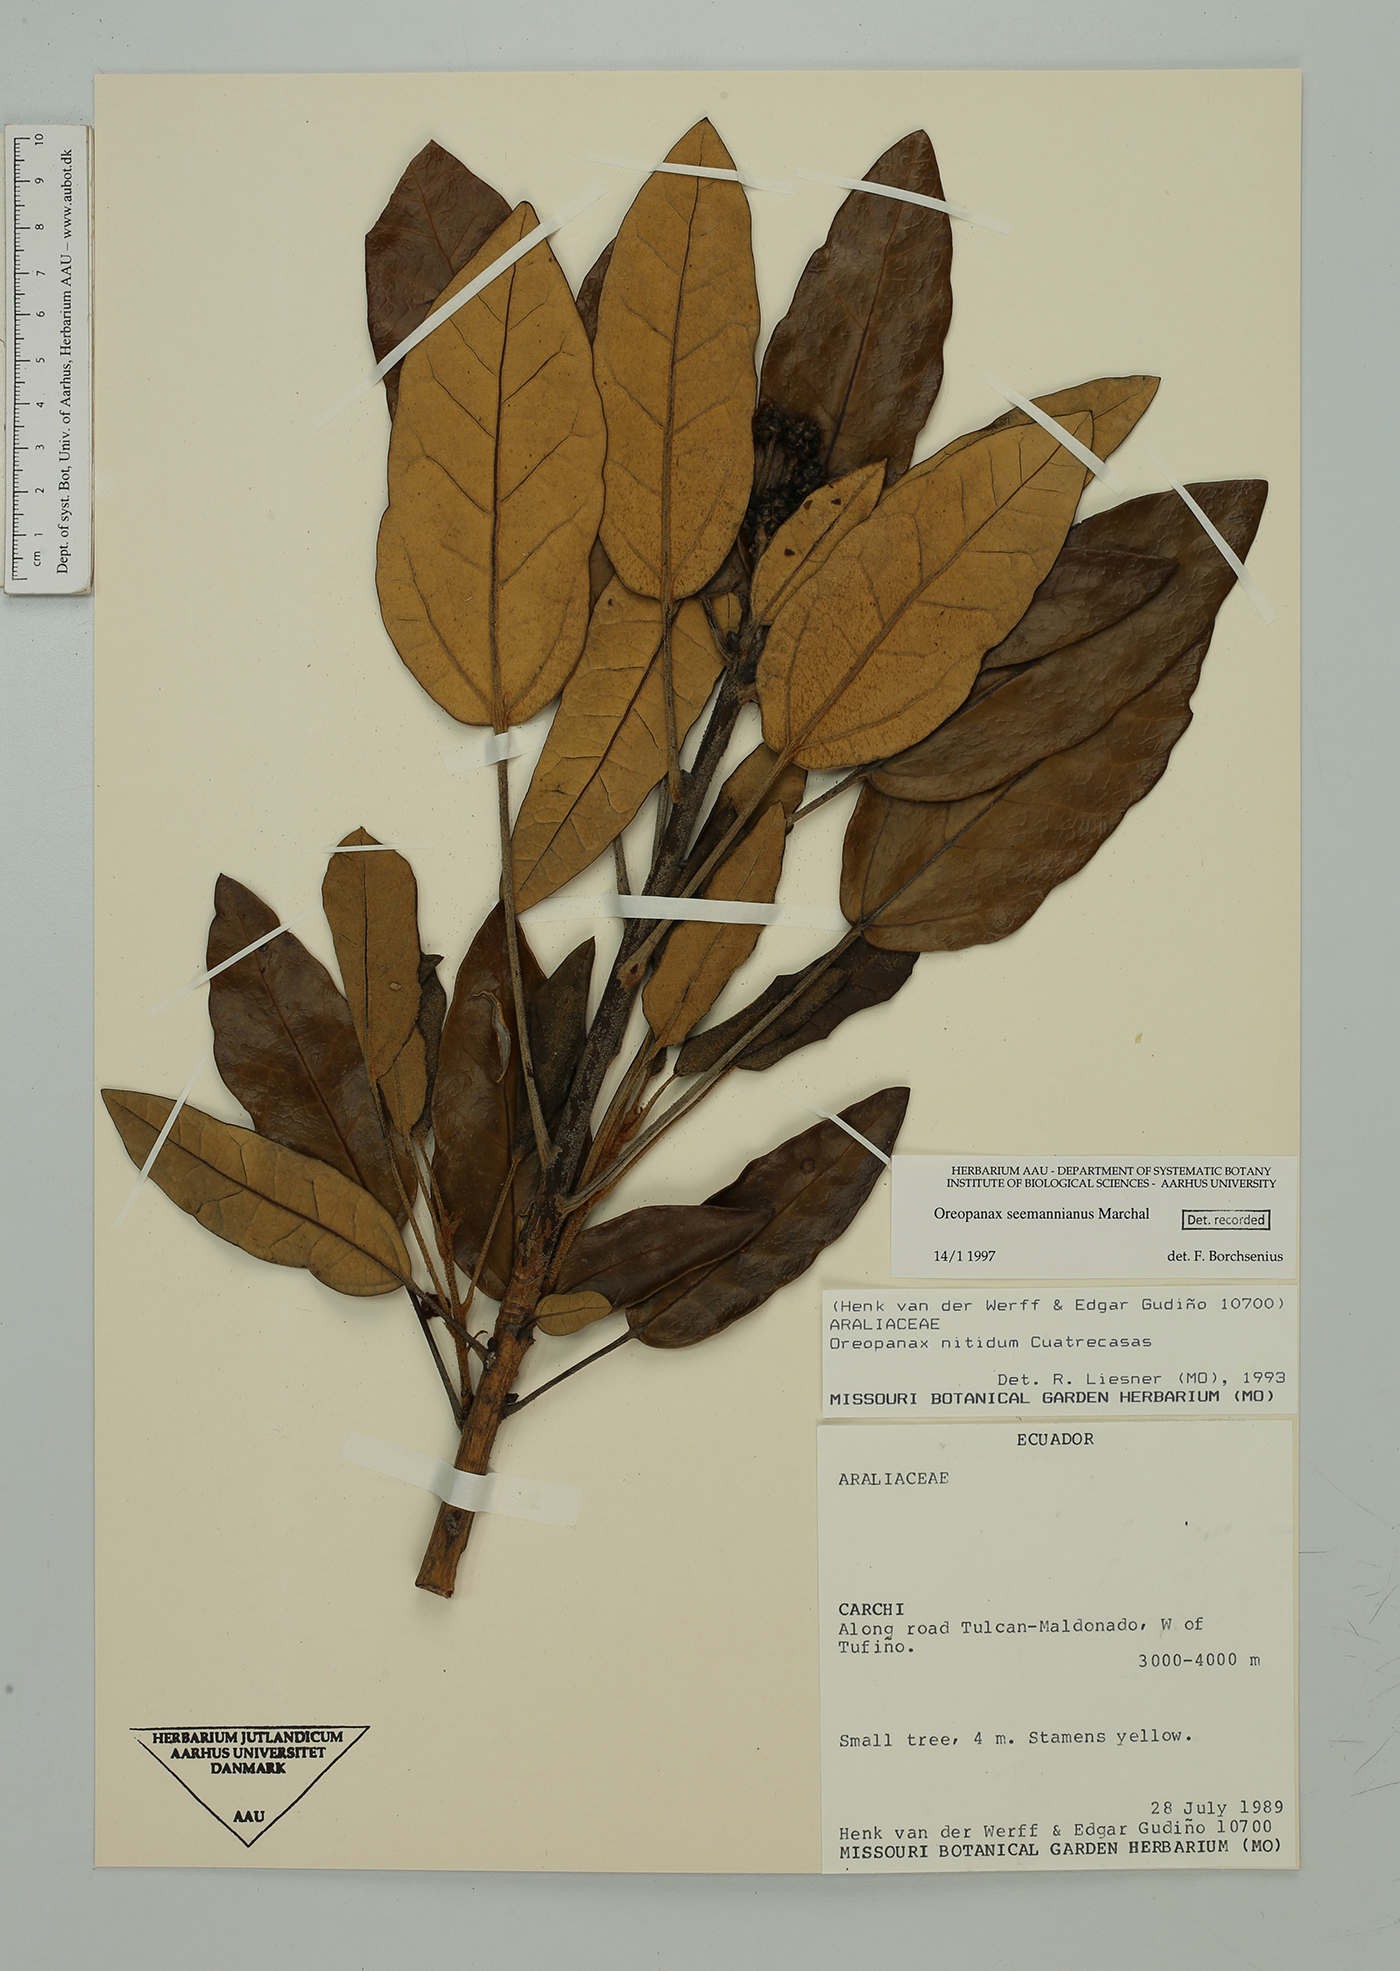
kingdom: Plantae
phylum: Tracheophyta
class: Magnoliopsida
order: Apiales
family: Araliaceae
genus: Oreopanax
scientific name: Oreopanax seemannianus
